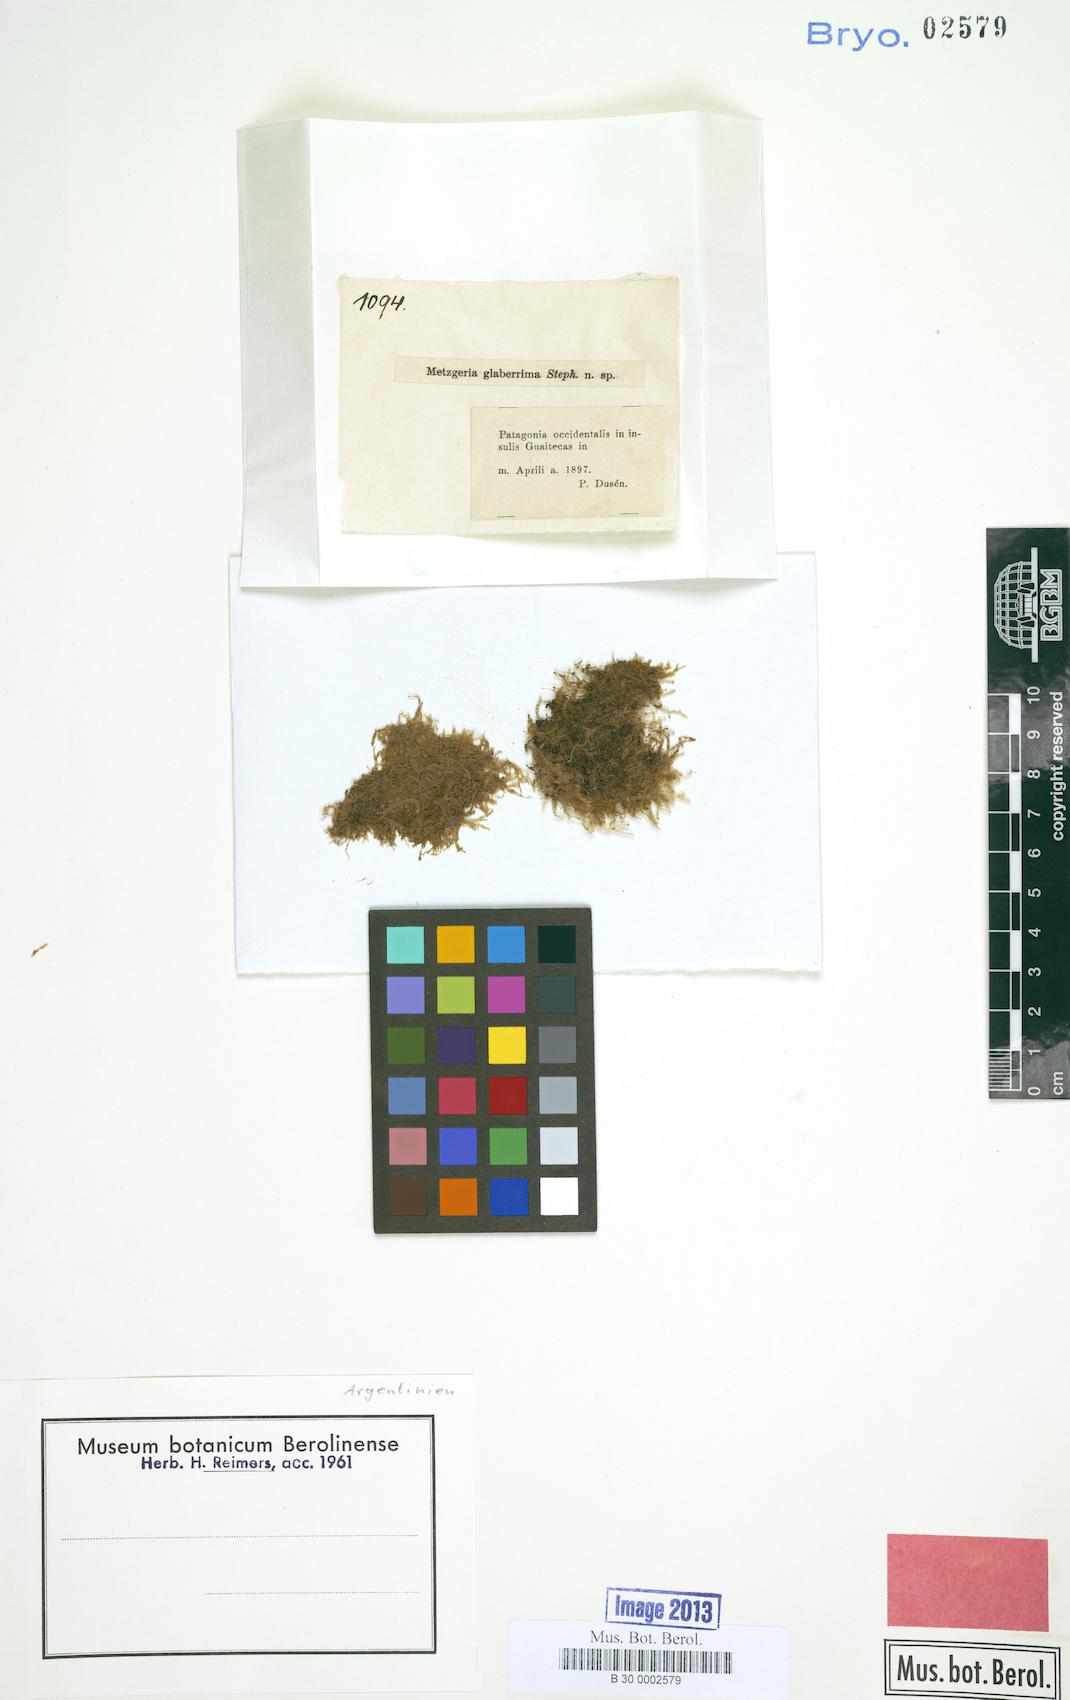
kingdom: Plantae
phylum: Marchantiophyta
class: Jungermanniopsida
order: Metzgeriales
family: Metzgeriaceae
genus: Metzgeria
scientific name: Metzgeria ciliata
